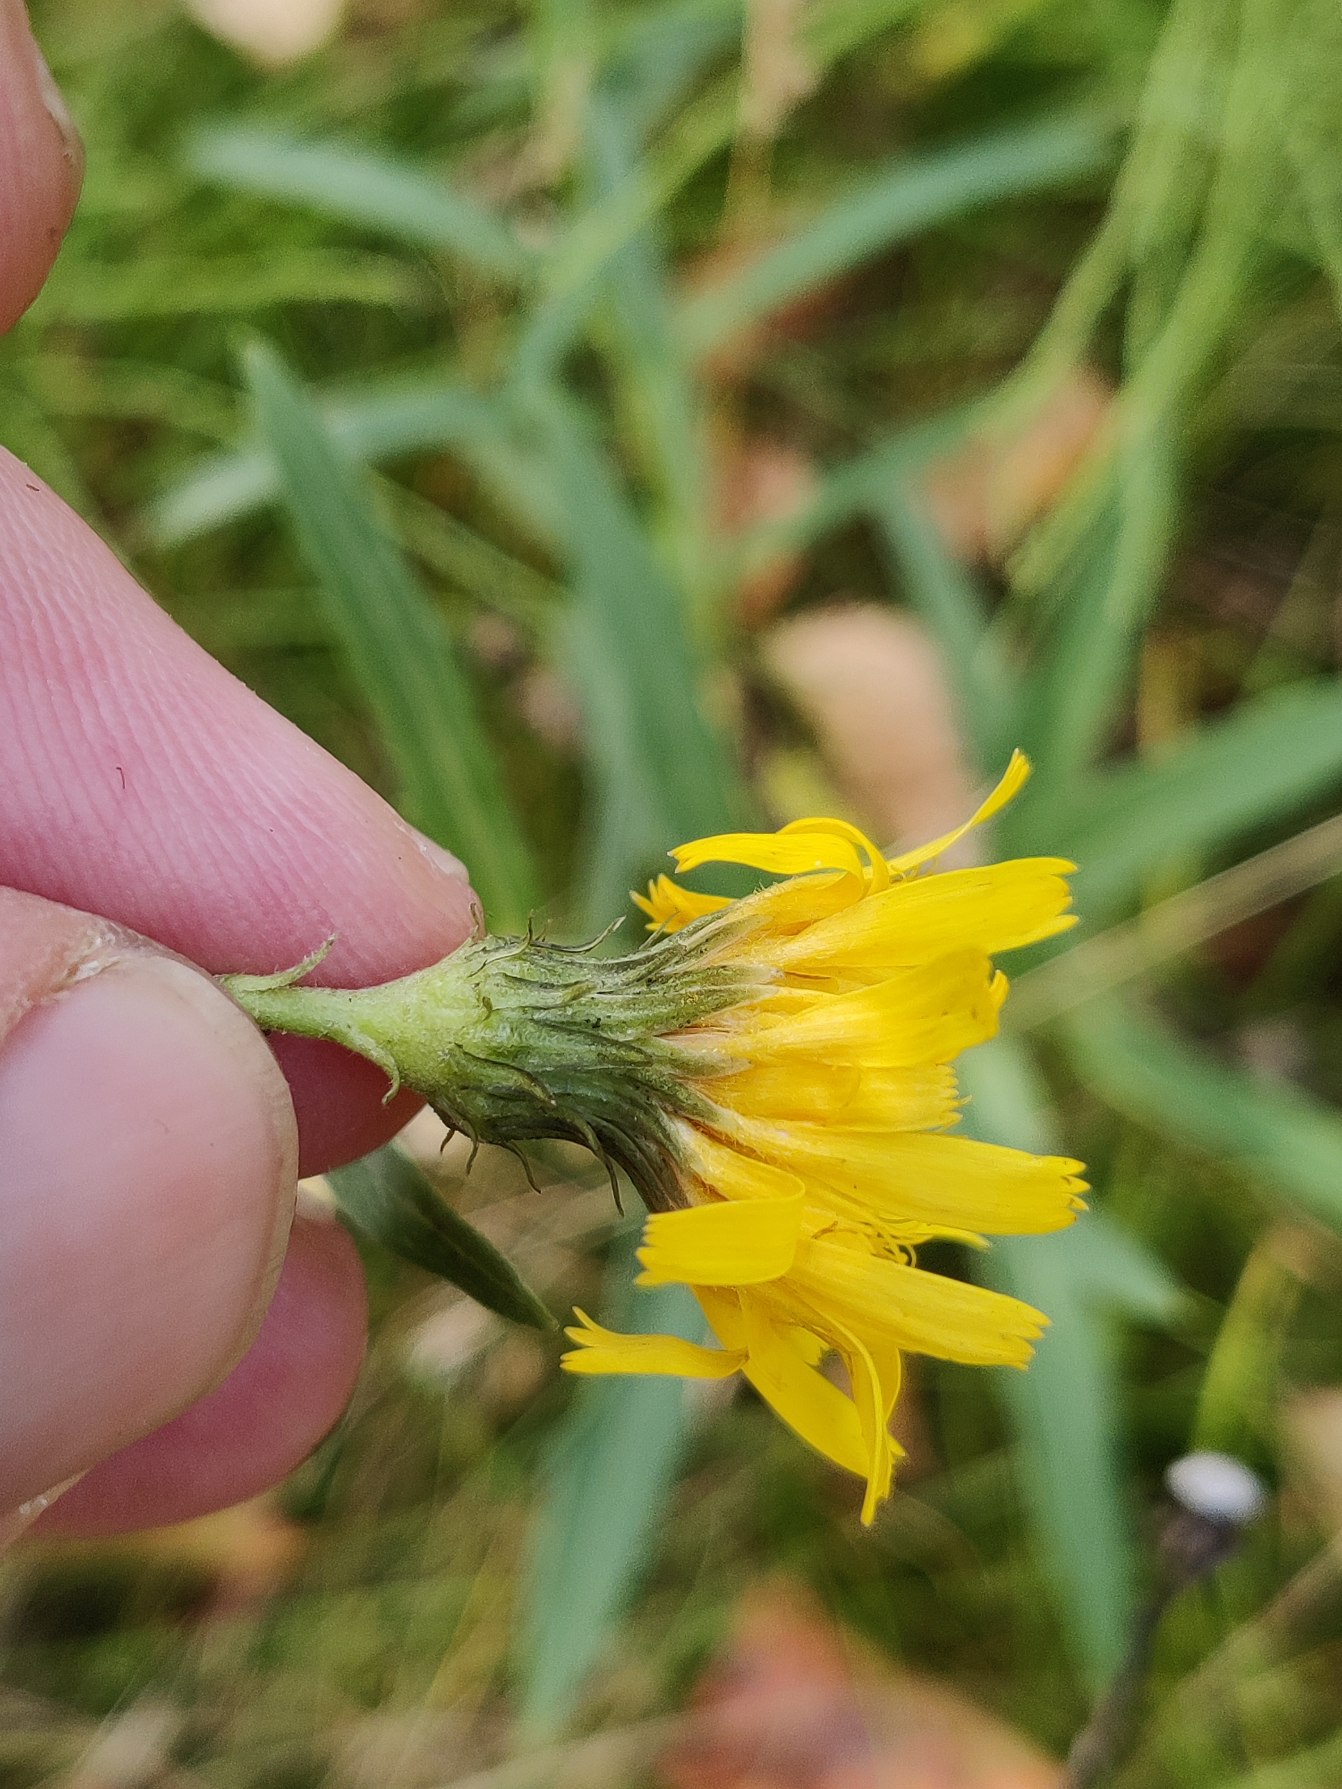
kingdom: Plantae
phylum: Tracheophyta
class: Magnoliopsida
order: Asterales
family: Asteraceae
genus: Hieracioides
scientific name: Hieracioides
